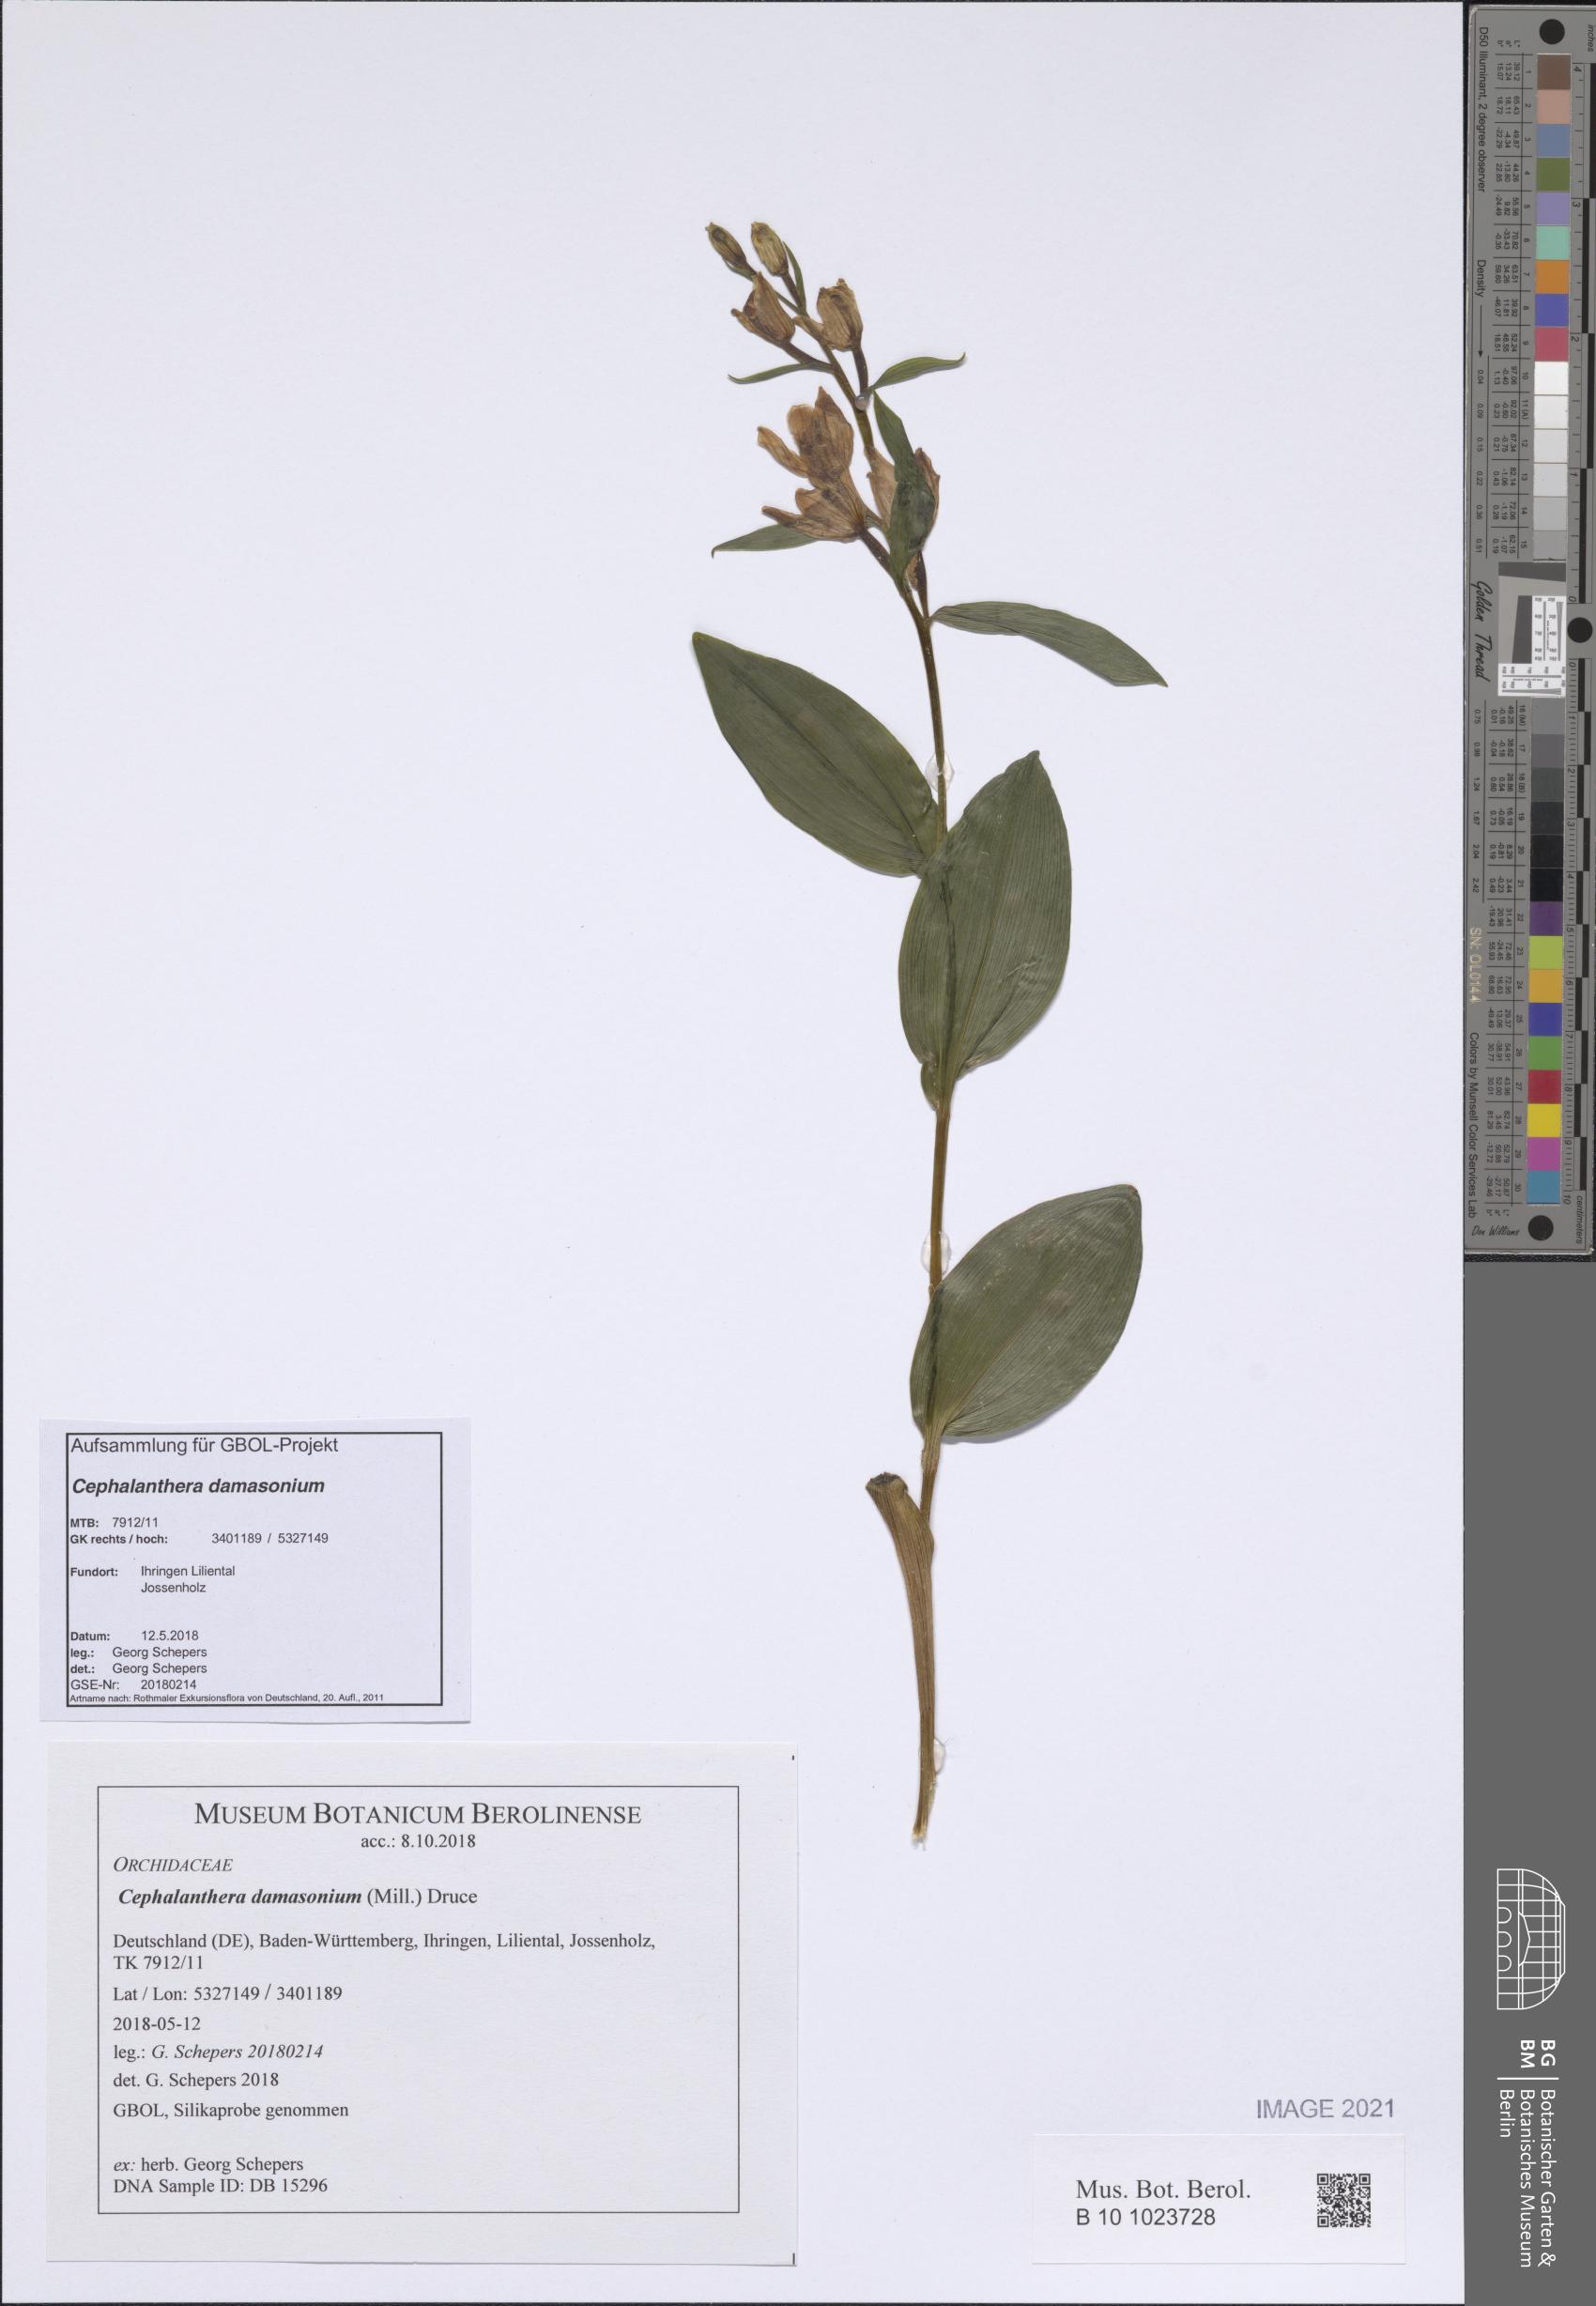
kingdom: Plantae
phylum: Tracheophyta
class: Liliopsida
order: Asparagales
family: Orchidaceae
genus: Cephalanthera
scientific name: Cephalanthera damasonium
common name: White helleborine
